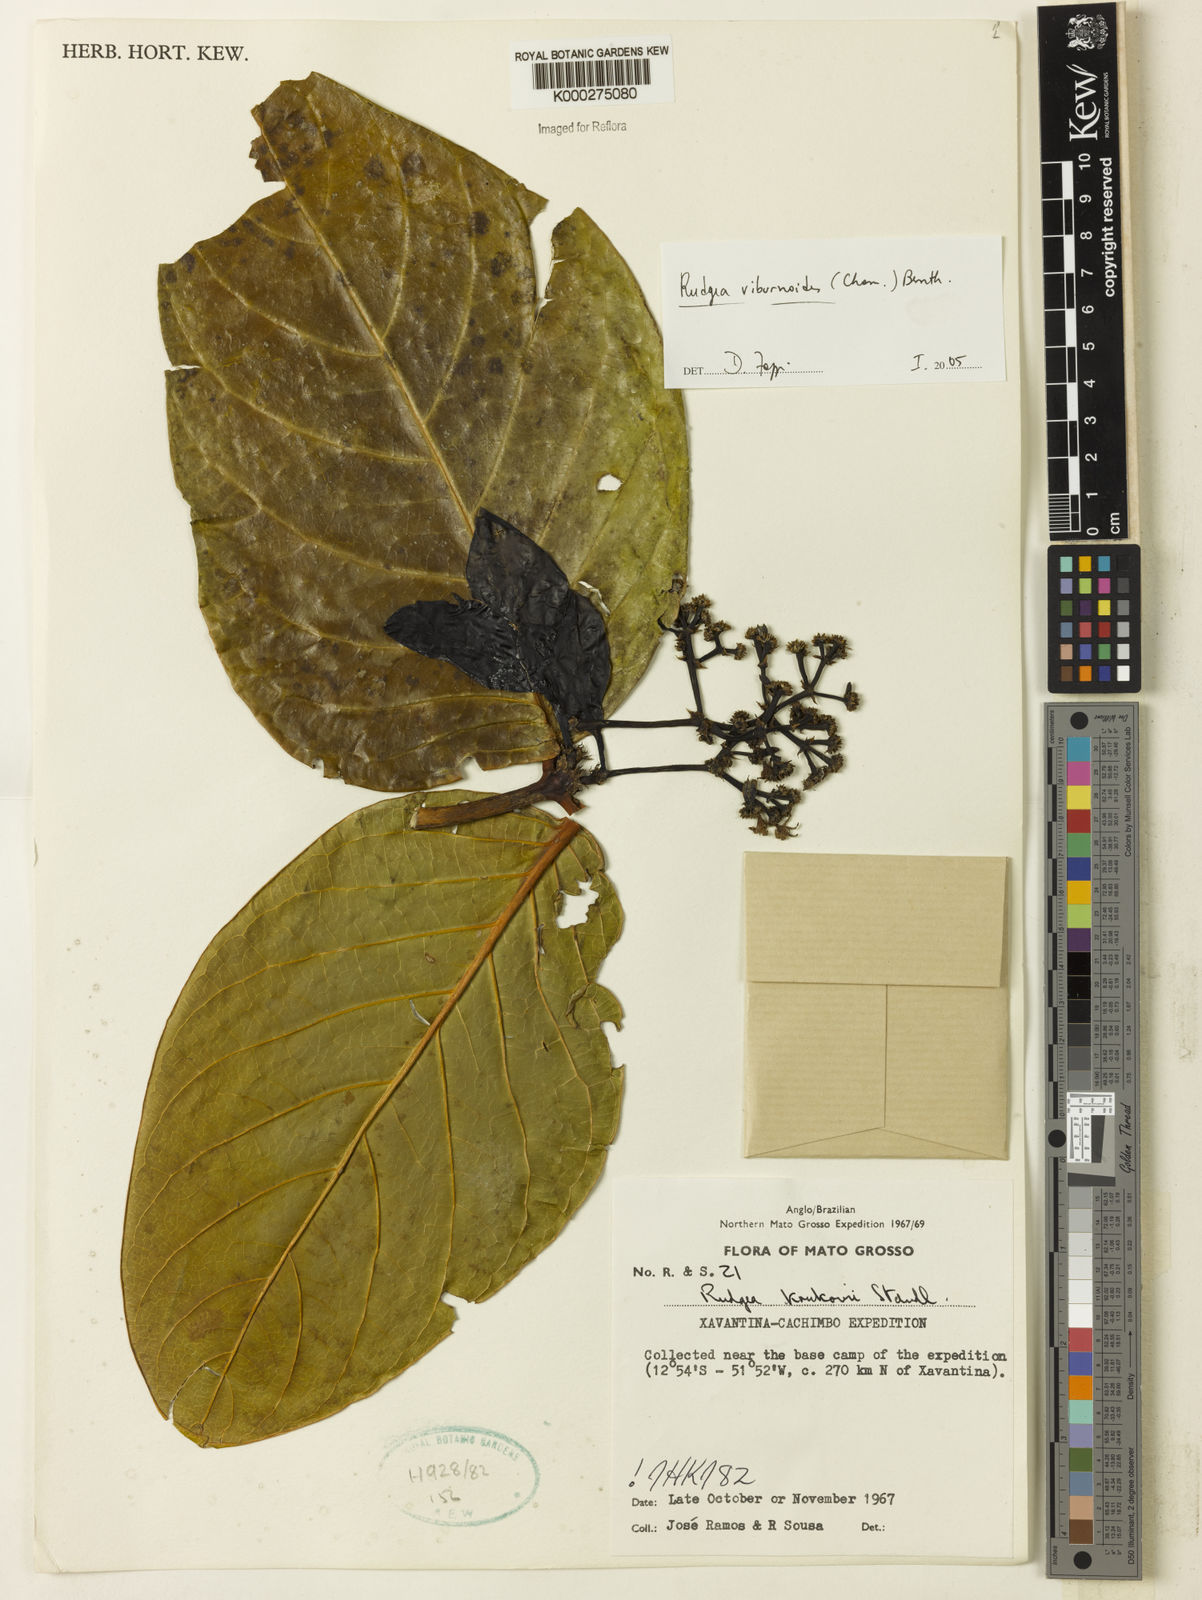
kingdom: Plantae
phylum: Tracheophyta
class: Magnoliopsida
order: Gentianales
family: Rubiaceae
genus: Rudgea
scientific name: Rudgea viburnoides
